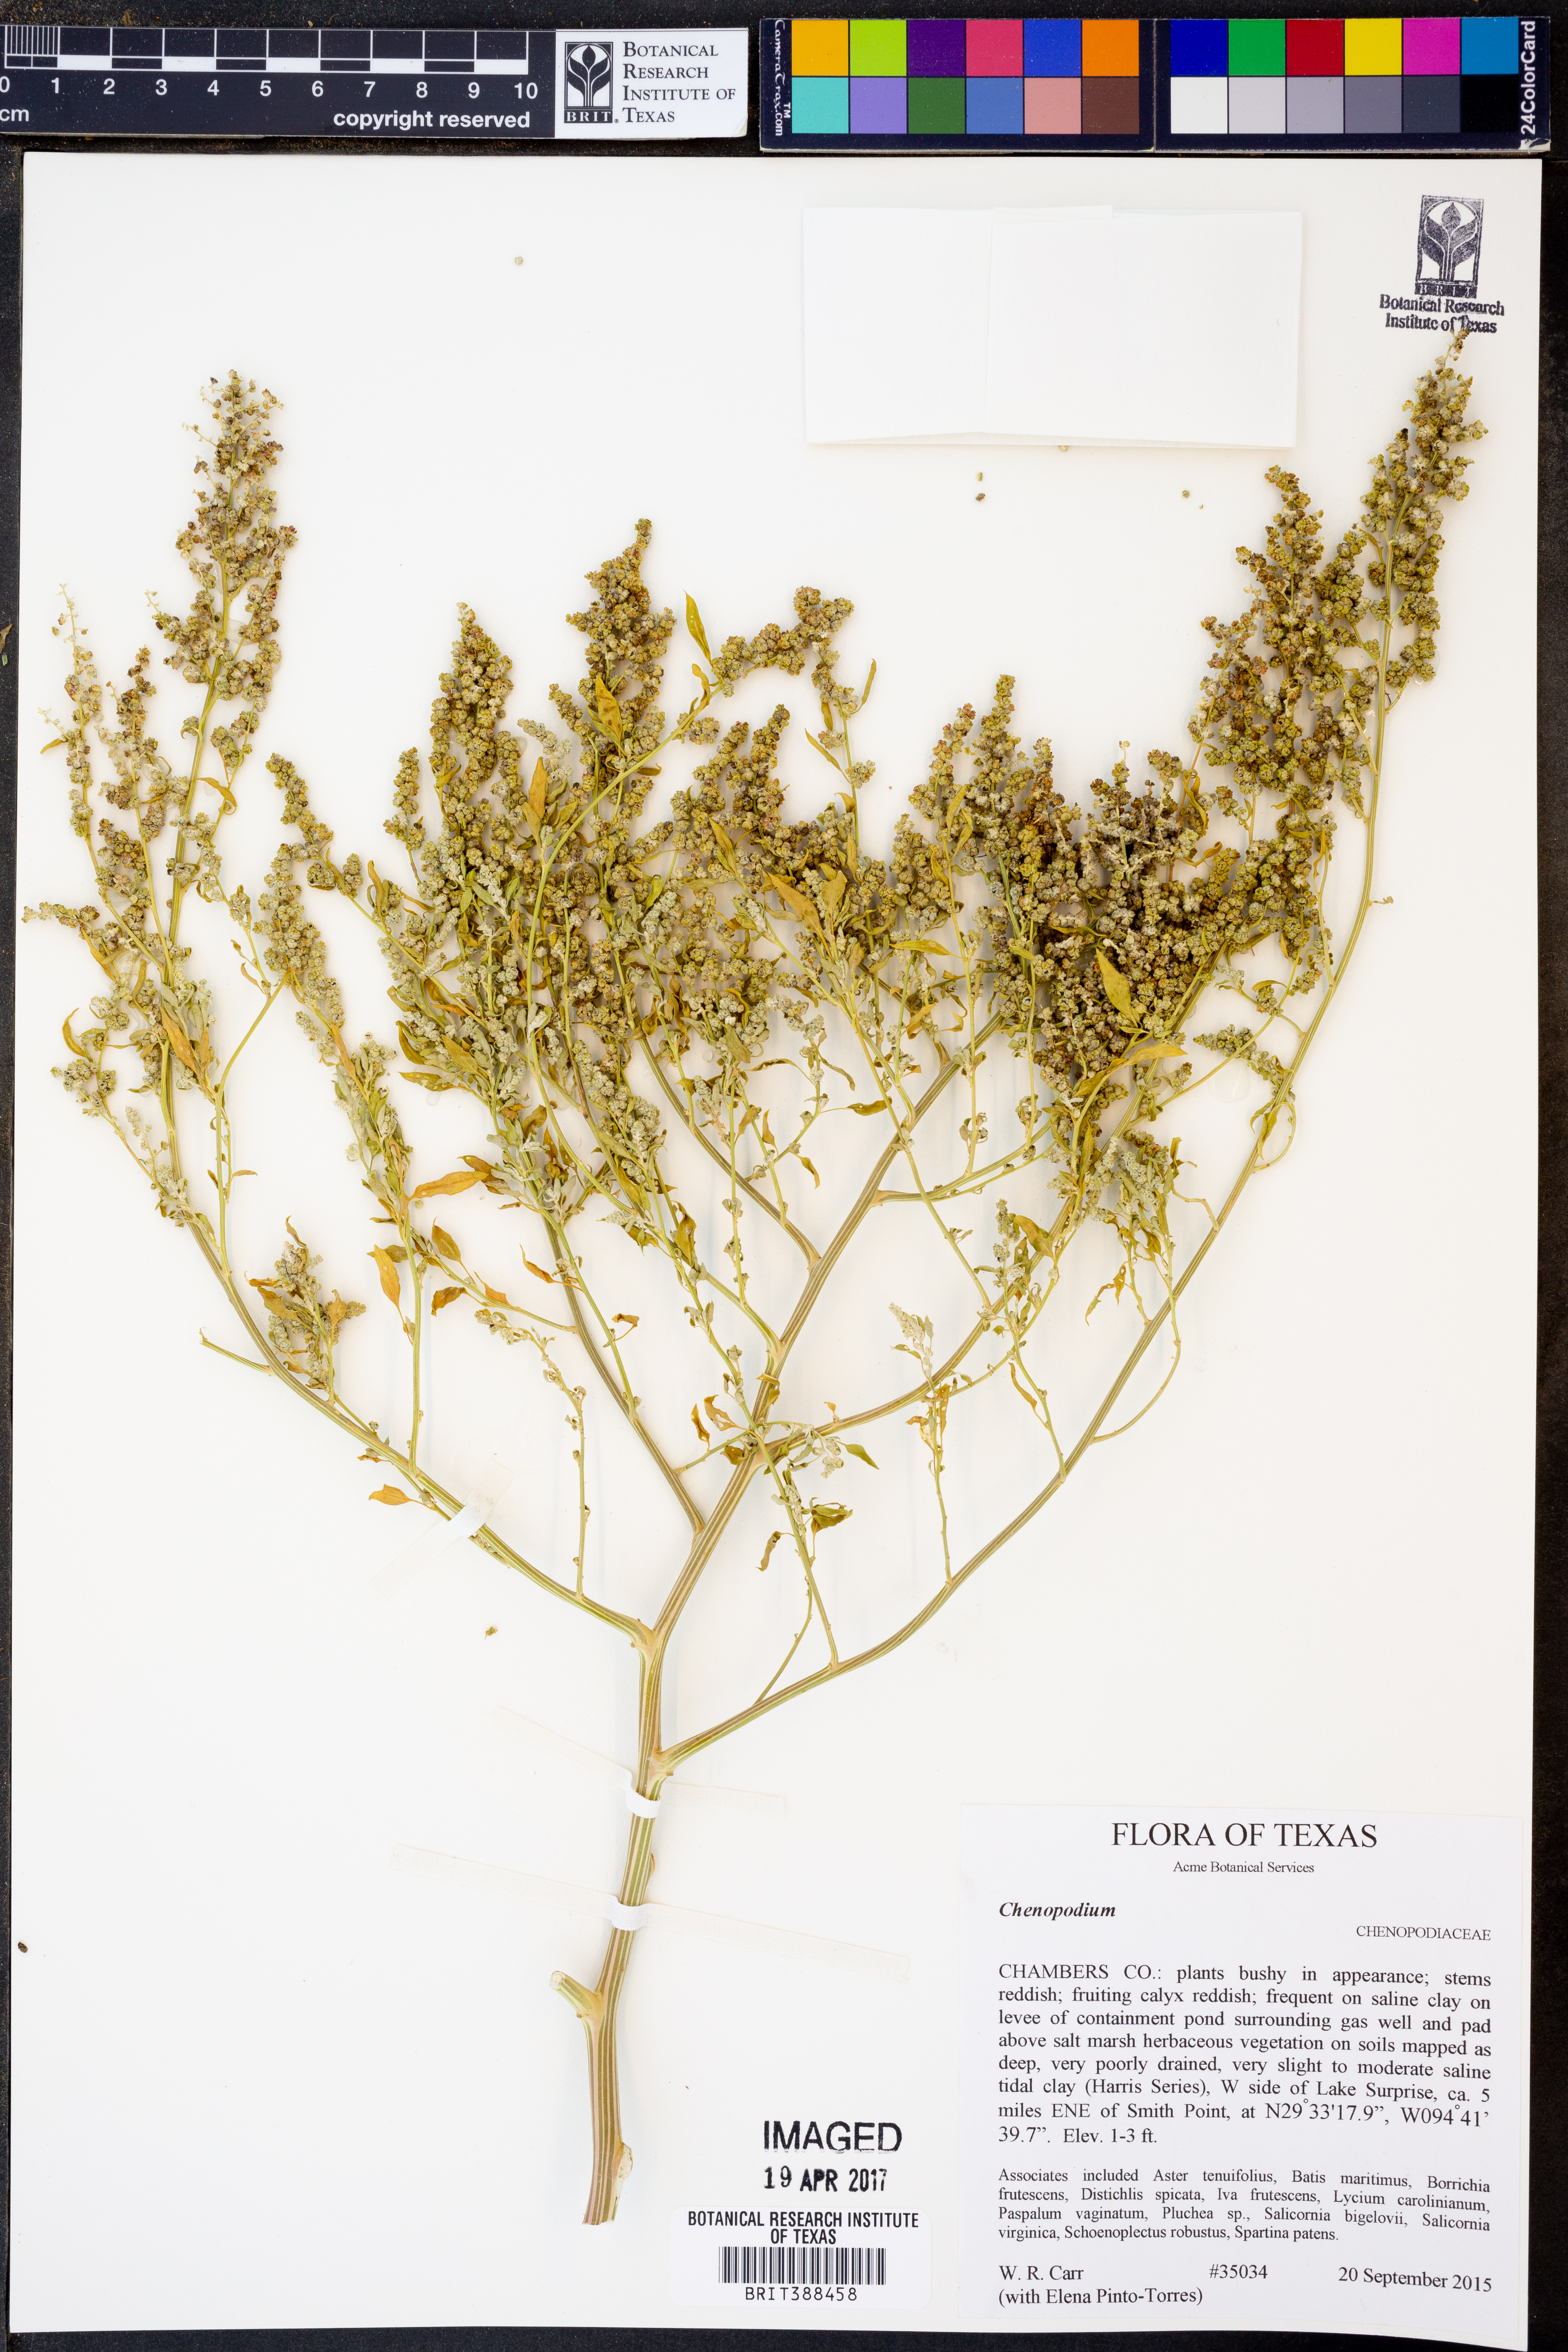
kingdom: Plantae
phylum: Tracheophyta
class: Magnoliopsida
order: Caryophyllales
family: Amaranthaceae
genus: Chenopodium
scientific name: Chenopodium
